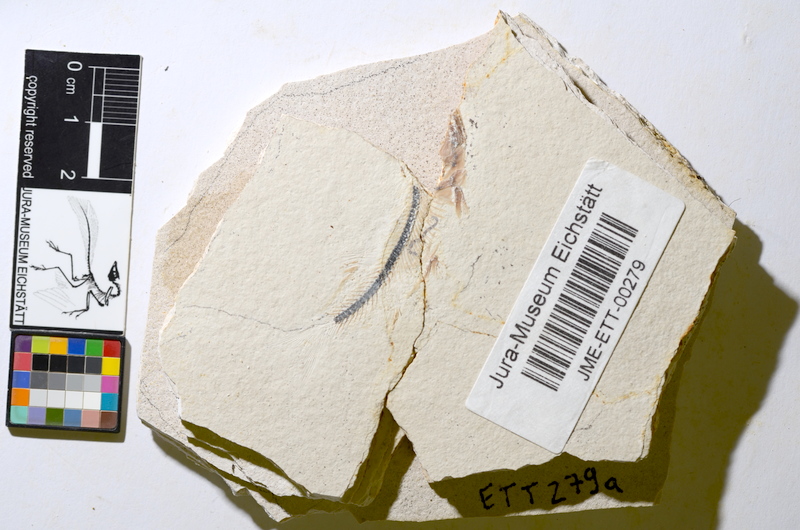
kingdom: Animalia
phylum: Chordata
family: Ascalaboidae
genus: Ebertichthys
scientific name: Ebertichthys ettlingensis
